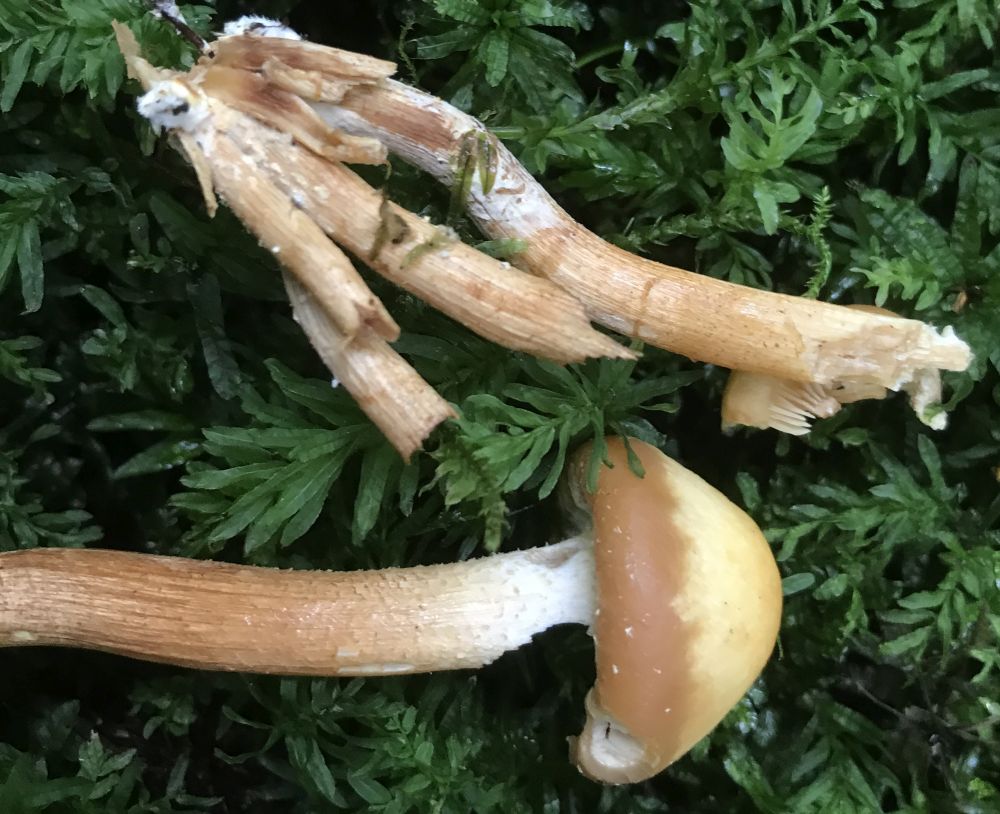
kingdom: Fungi
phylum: Basidiomycota
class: Agaricomycetes
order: Agaricales
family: Strophariaceae
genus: Kuehneromyces
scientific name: Kuehneromyces
